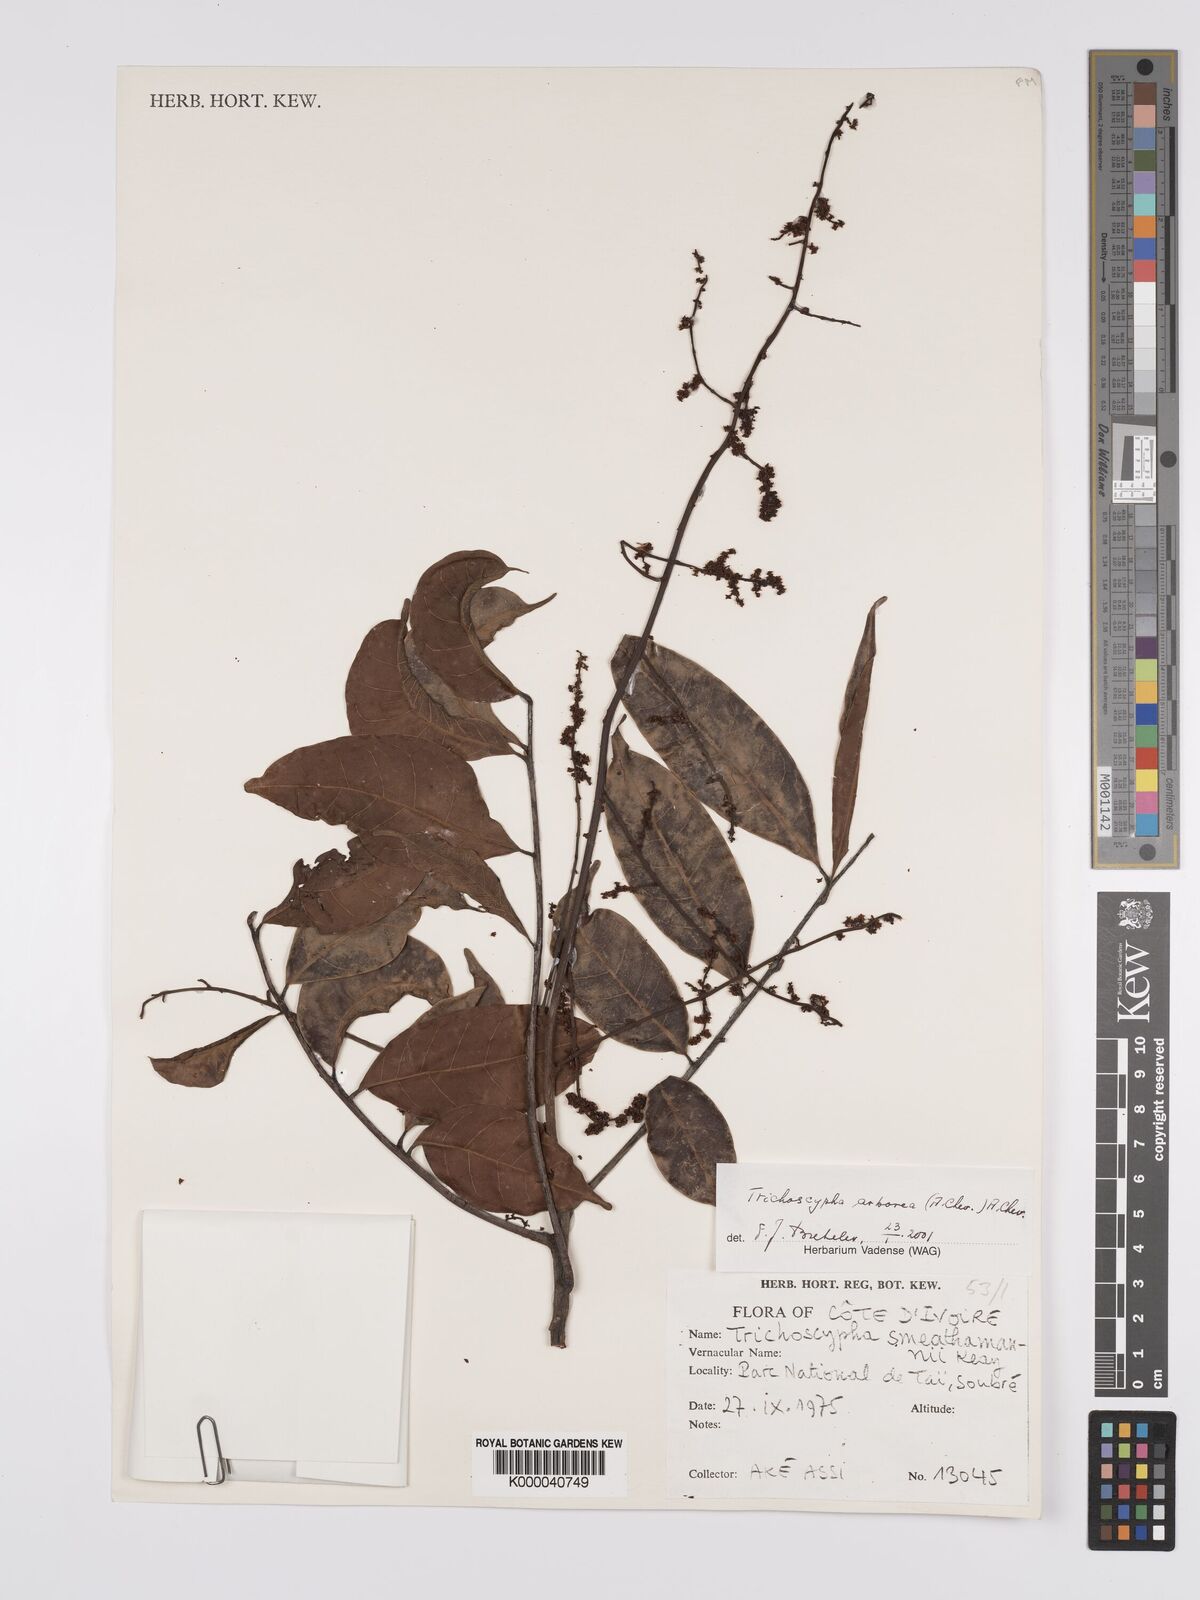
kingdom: Plantae
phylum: Tracheophyta
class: Magnoliopsida
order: Sapindales
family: Anacardiaceae
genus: Trichoscypha
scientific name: Trichoscypha arborea
